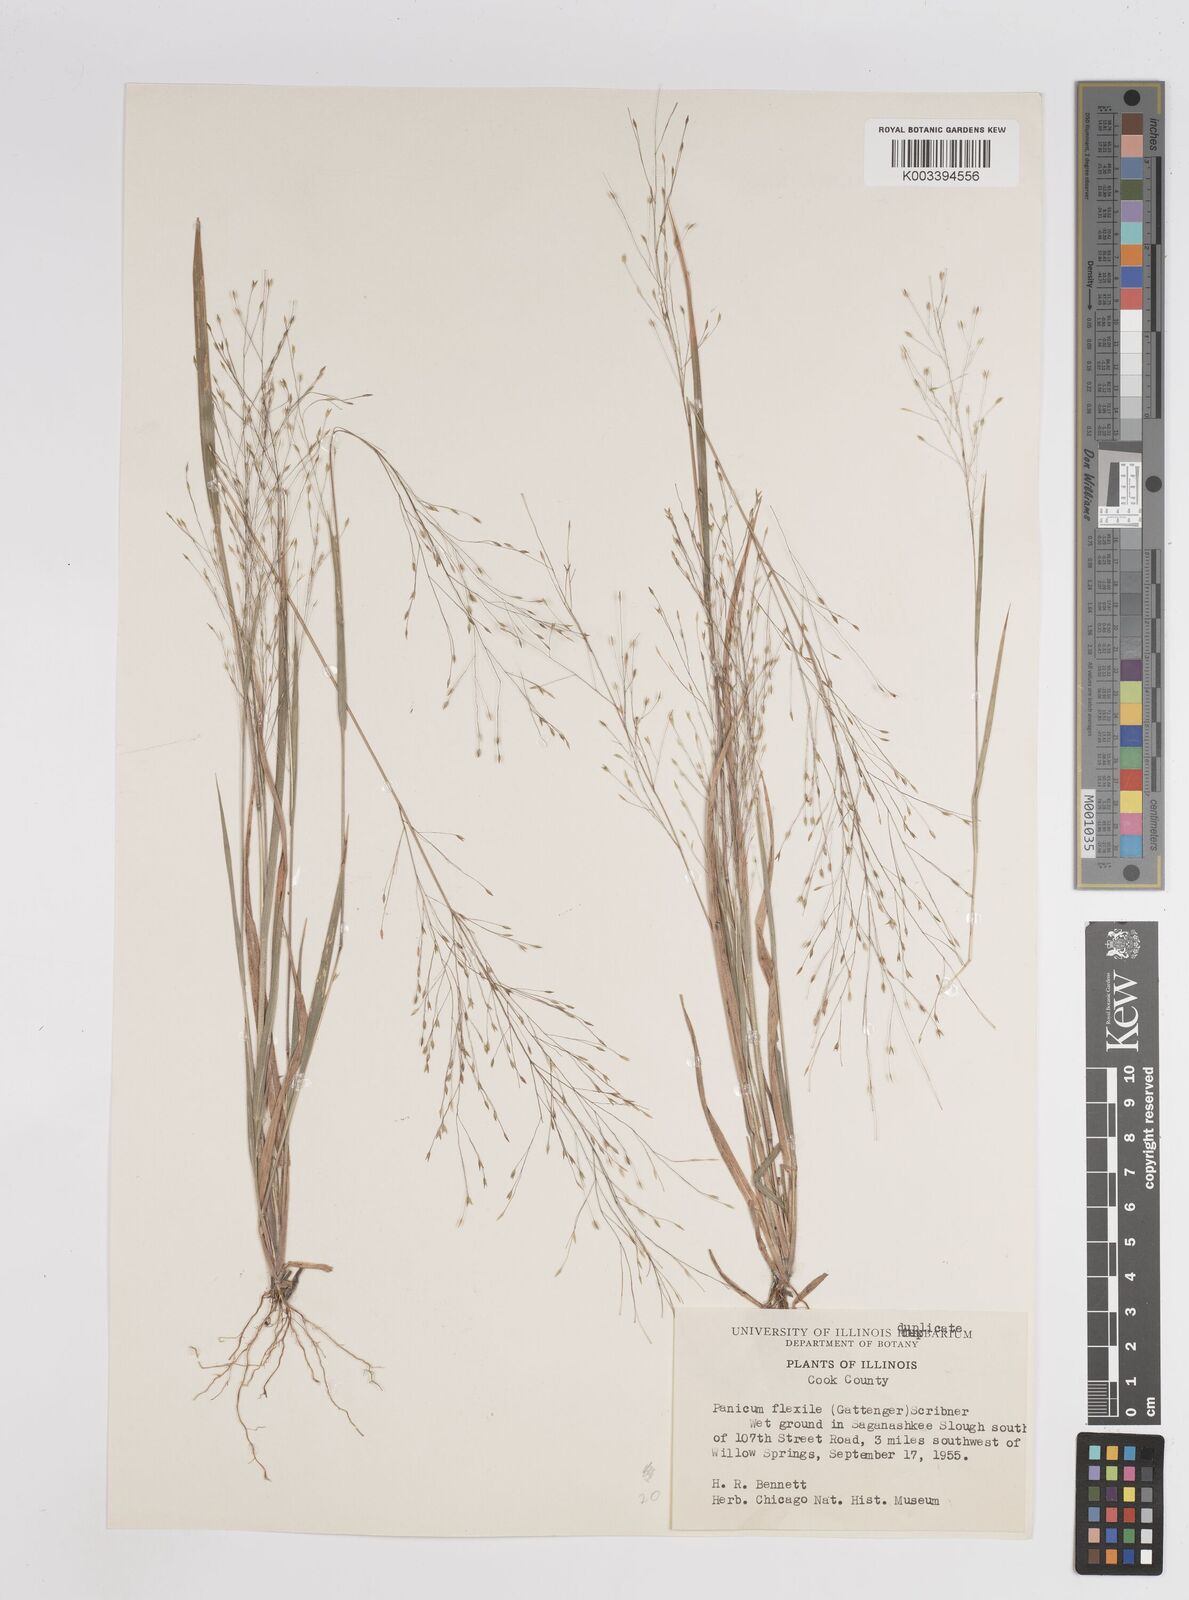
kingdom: Plantae
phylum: Tracheophyta
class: Liliopsida
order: Poales
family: Poaceae
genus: Panicum
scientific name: Panicum flexile
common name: Wiry panicgrass
